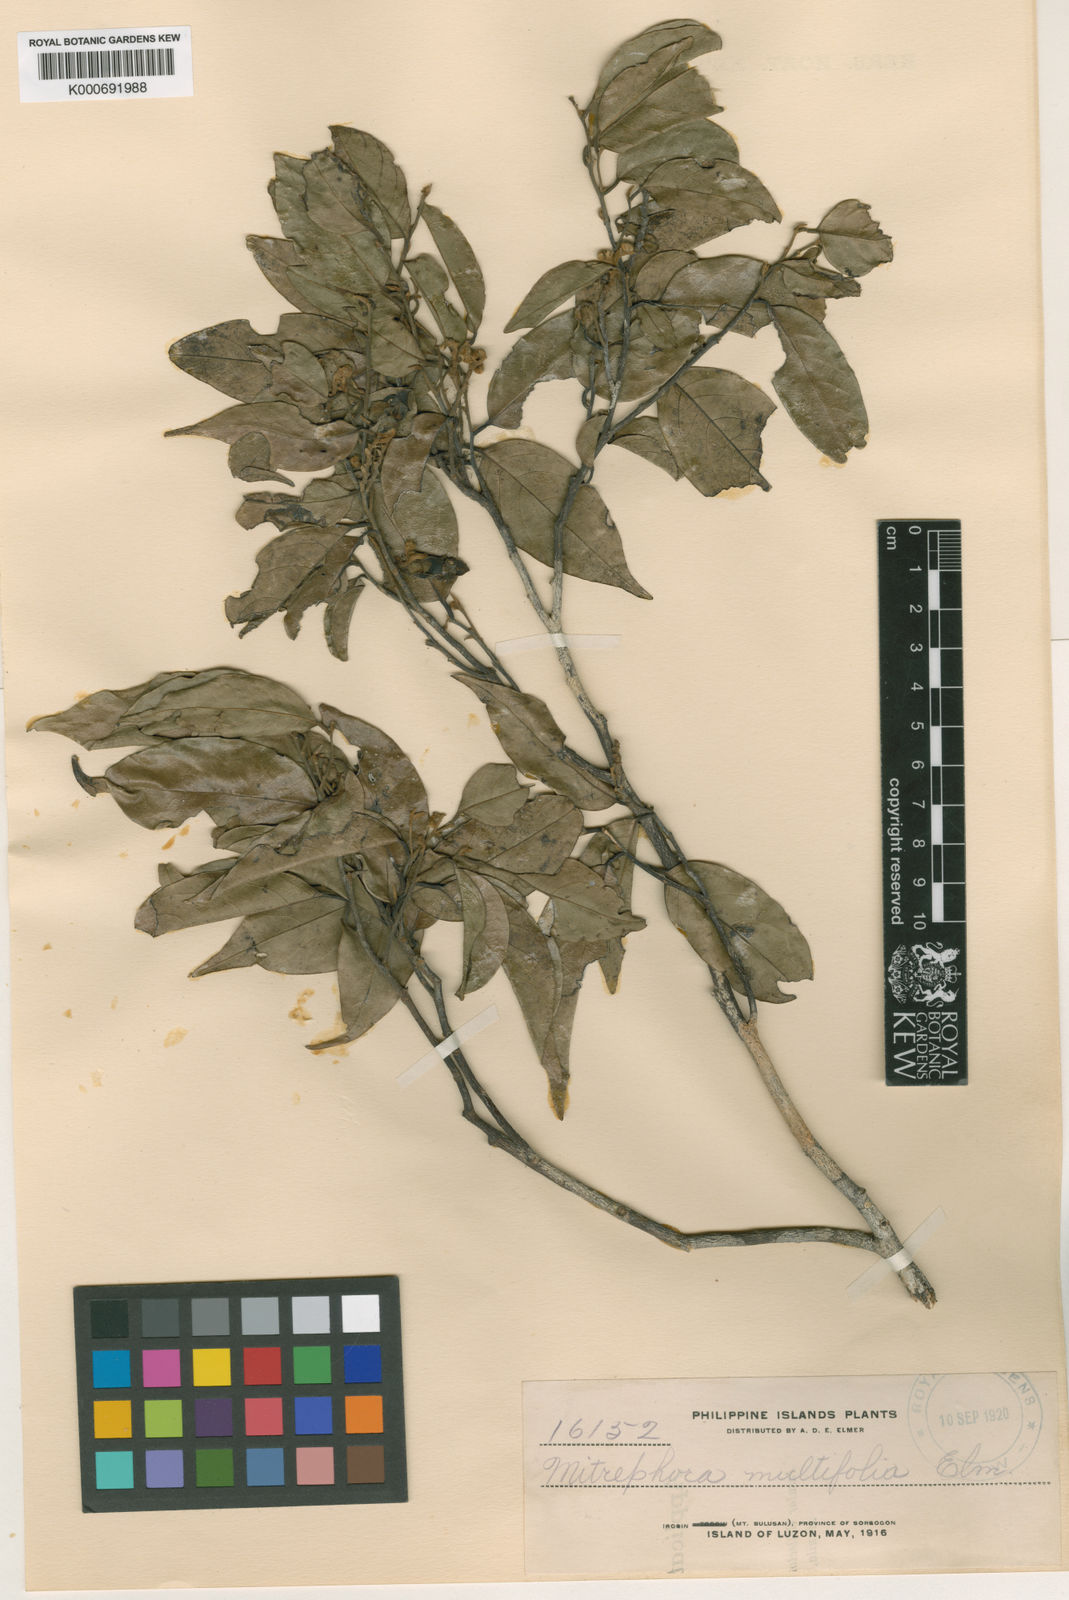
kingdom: Plantae
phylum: Tracheophyta
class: Magnoliopsida
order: Magnoliales
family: Annonaceae
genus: Mitrephora
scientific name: Mitrephora
